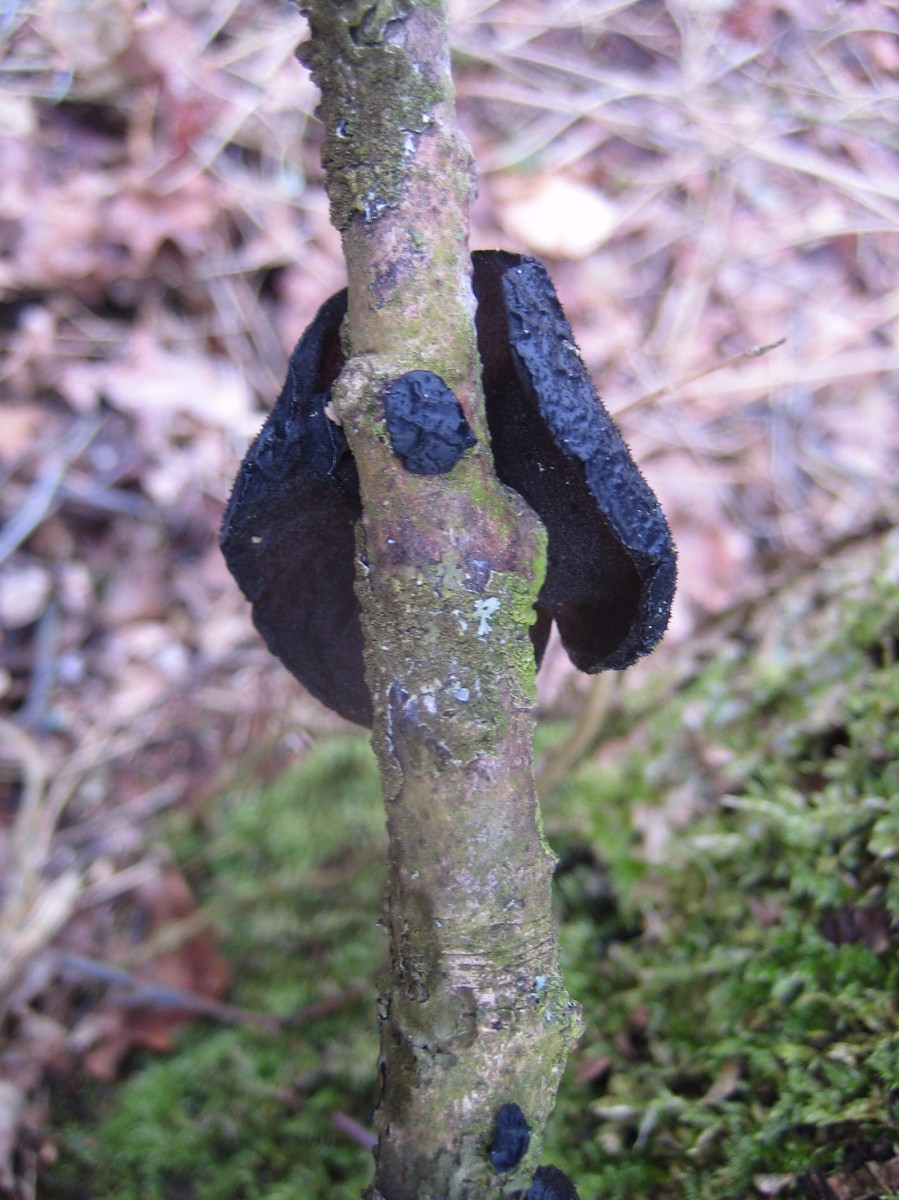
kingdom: Fungi
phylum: Basidiomycota
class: Agaricomycetes
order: Auriculariales
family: Auriculariaceae
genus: Exidia
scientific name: Exidia glandulosa
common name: ege-bævretop
